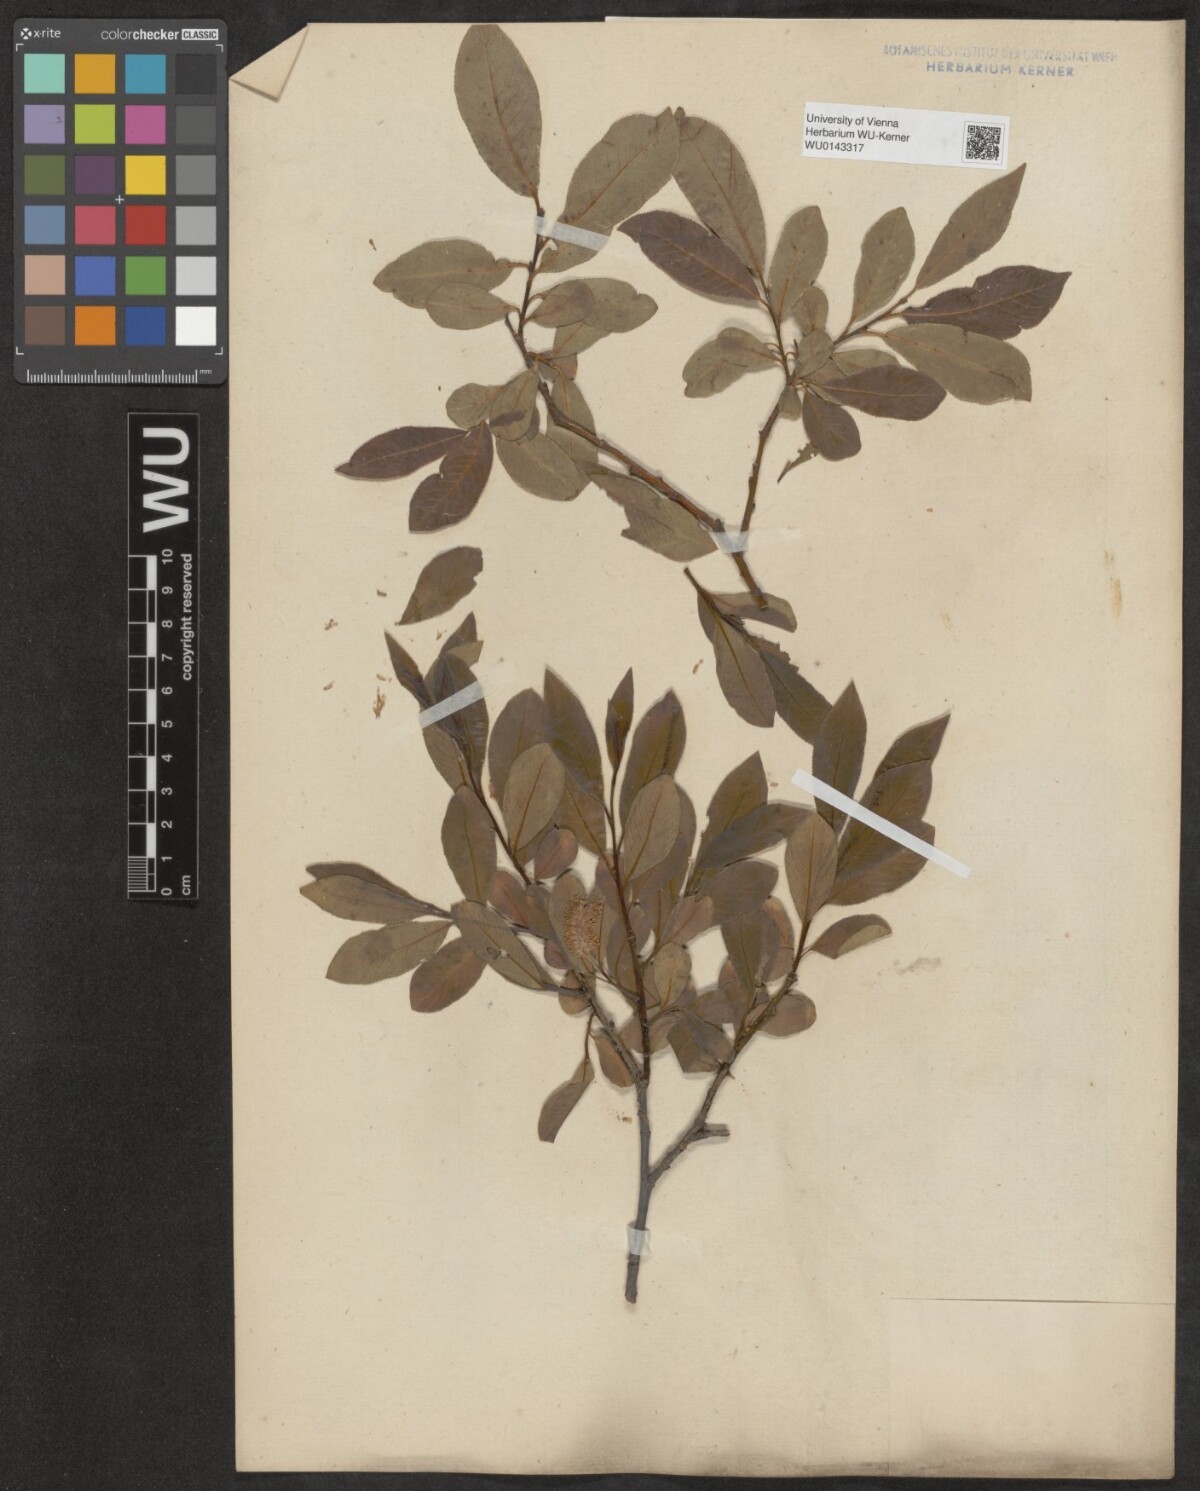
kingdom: Plantae
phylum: Tracheophyta
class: Magnoliopsida
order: Malpighiales
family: Salicaceae
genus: Salix
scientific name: Salix pentandra
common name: Bay willow
